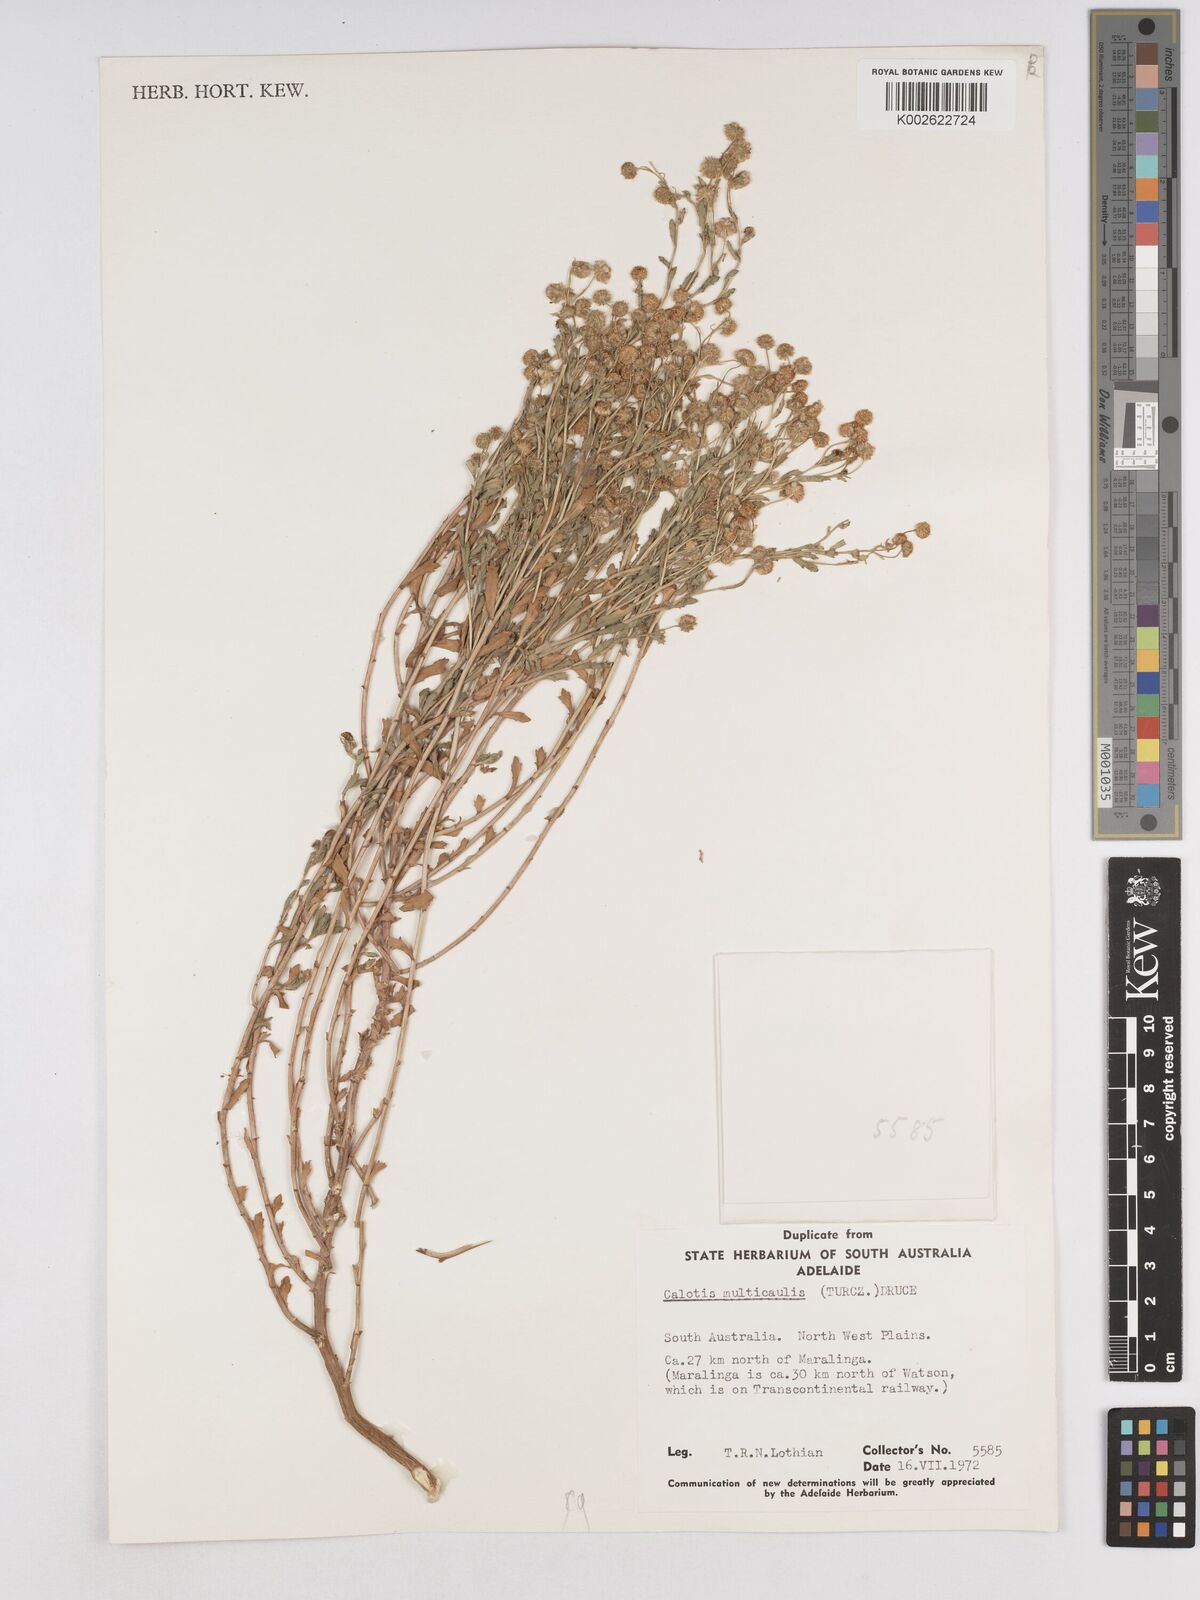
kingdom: Plantae
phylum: Tracheophyta
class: Magnoliopsida
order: Asterales
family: Asteraceae
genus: Calotis
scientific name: Calotis multicaulis
